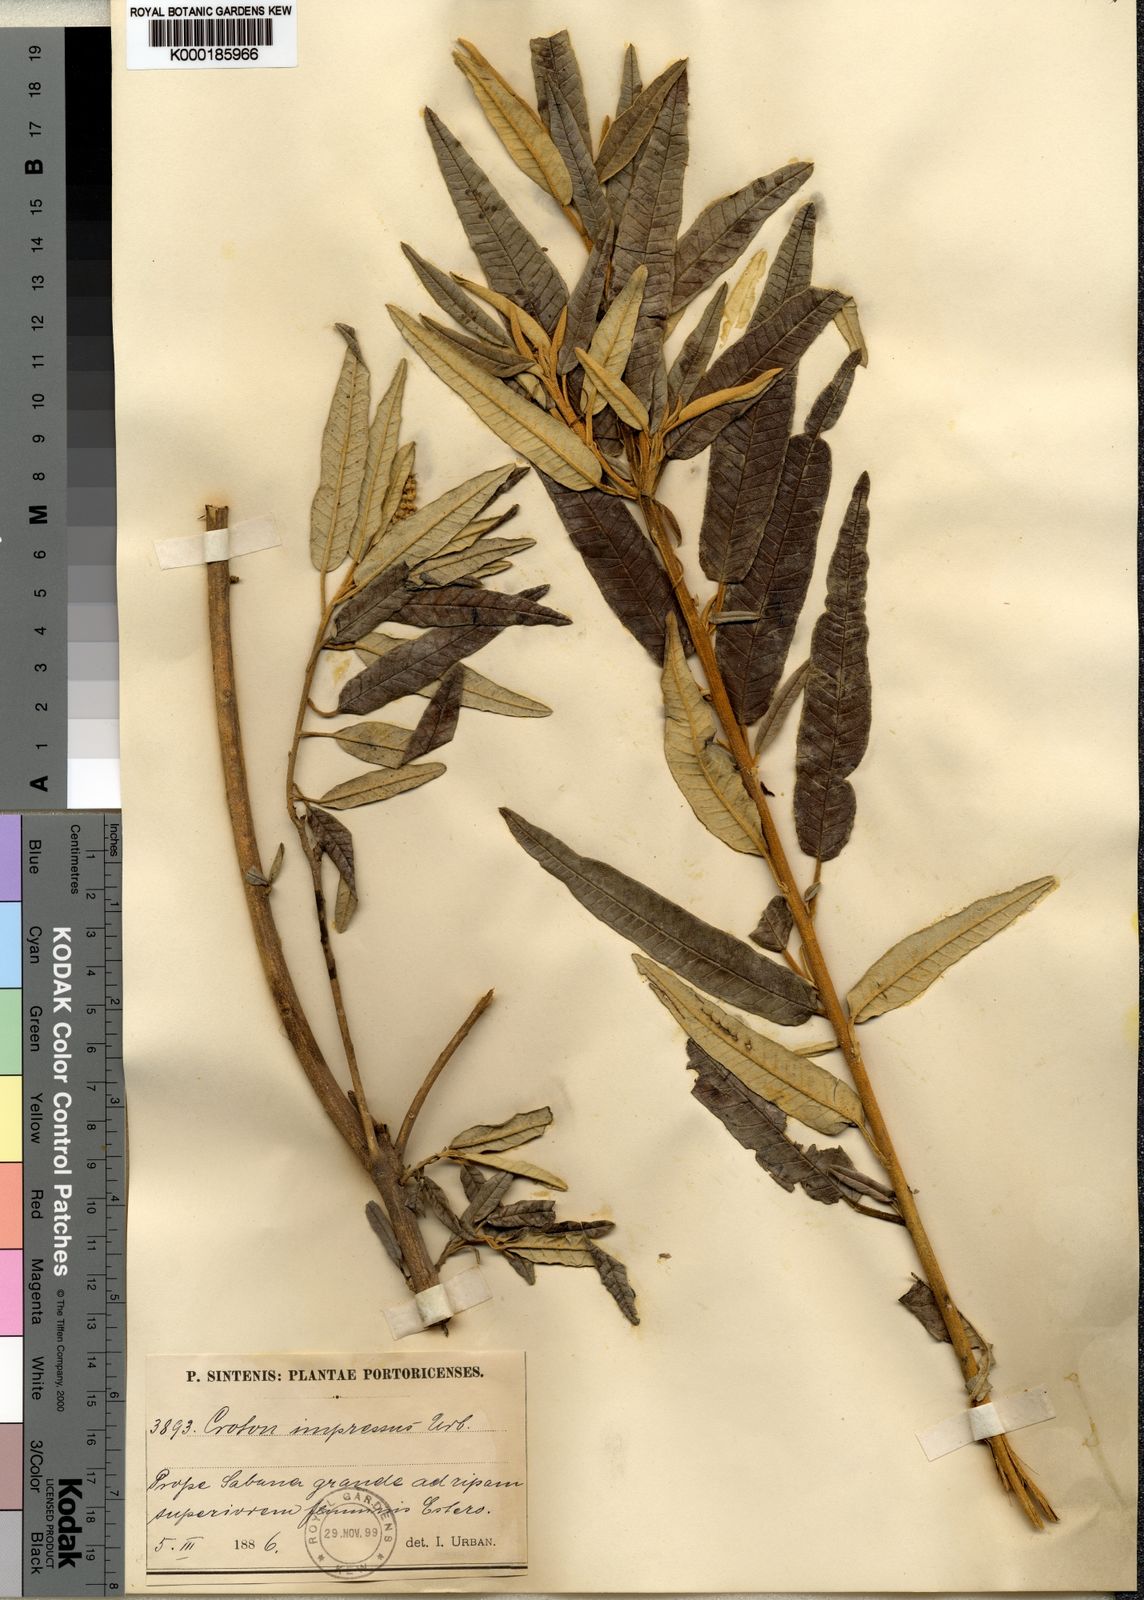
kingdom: Plantae
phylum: Tracheophyta
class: Magnoliopsida
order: Malpighiales
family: Euphorbiaceae
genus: Croton
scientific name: Croton impressus
